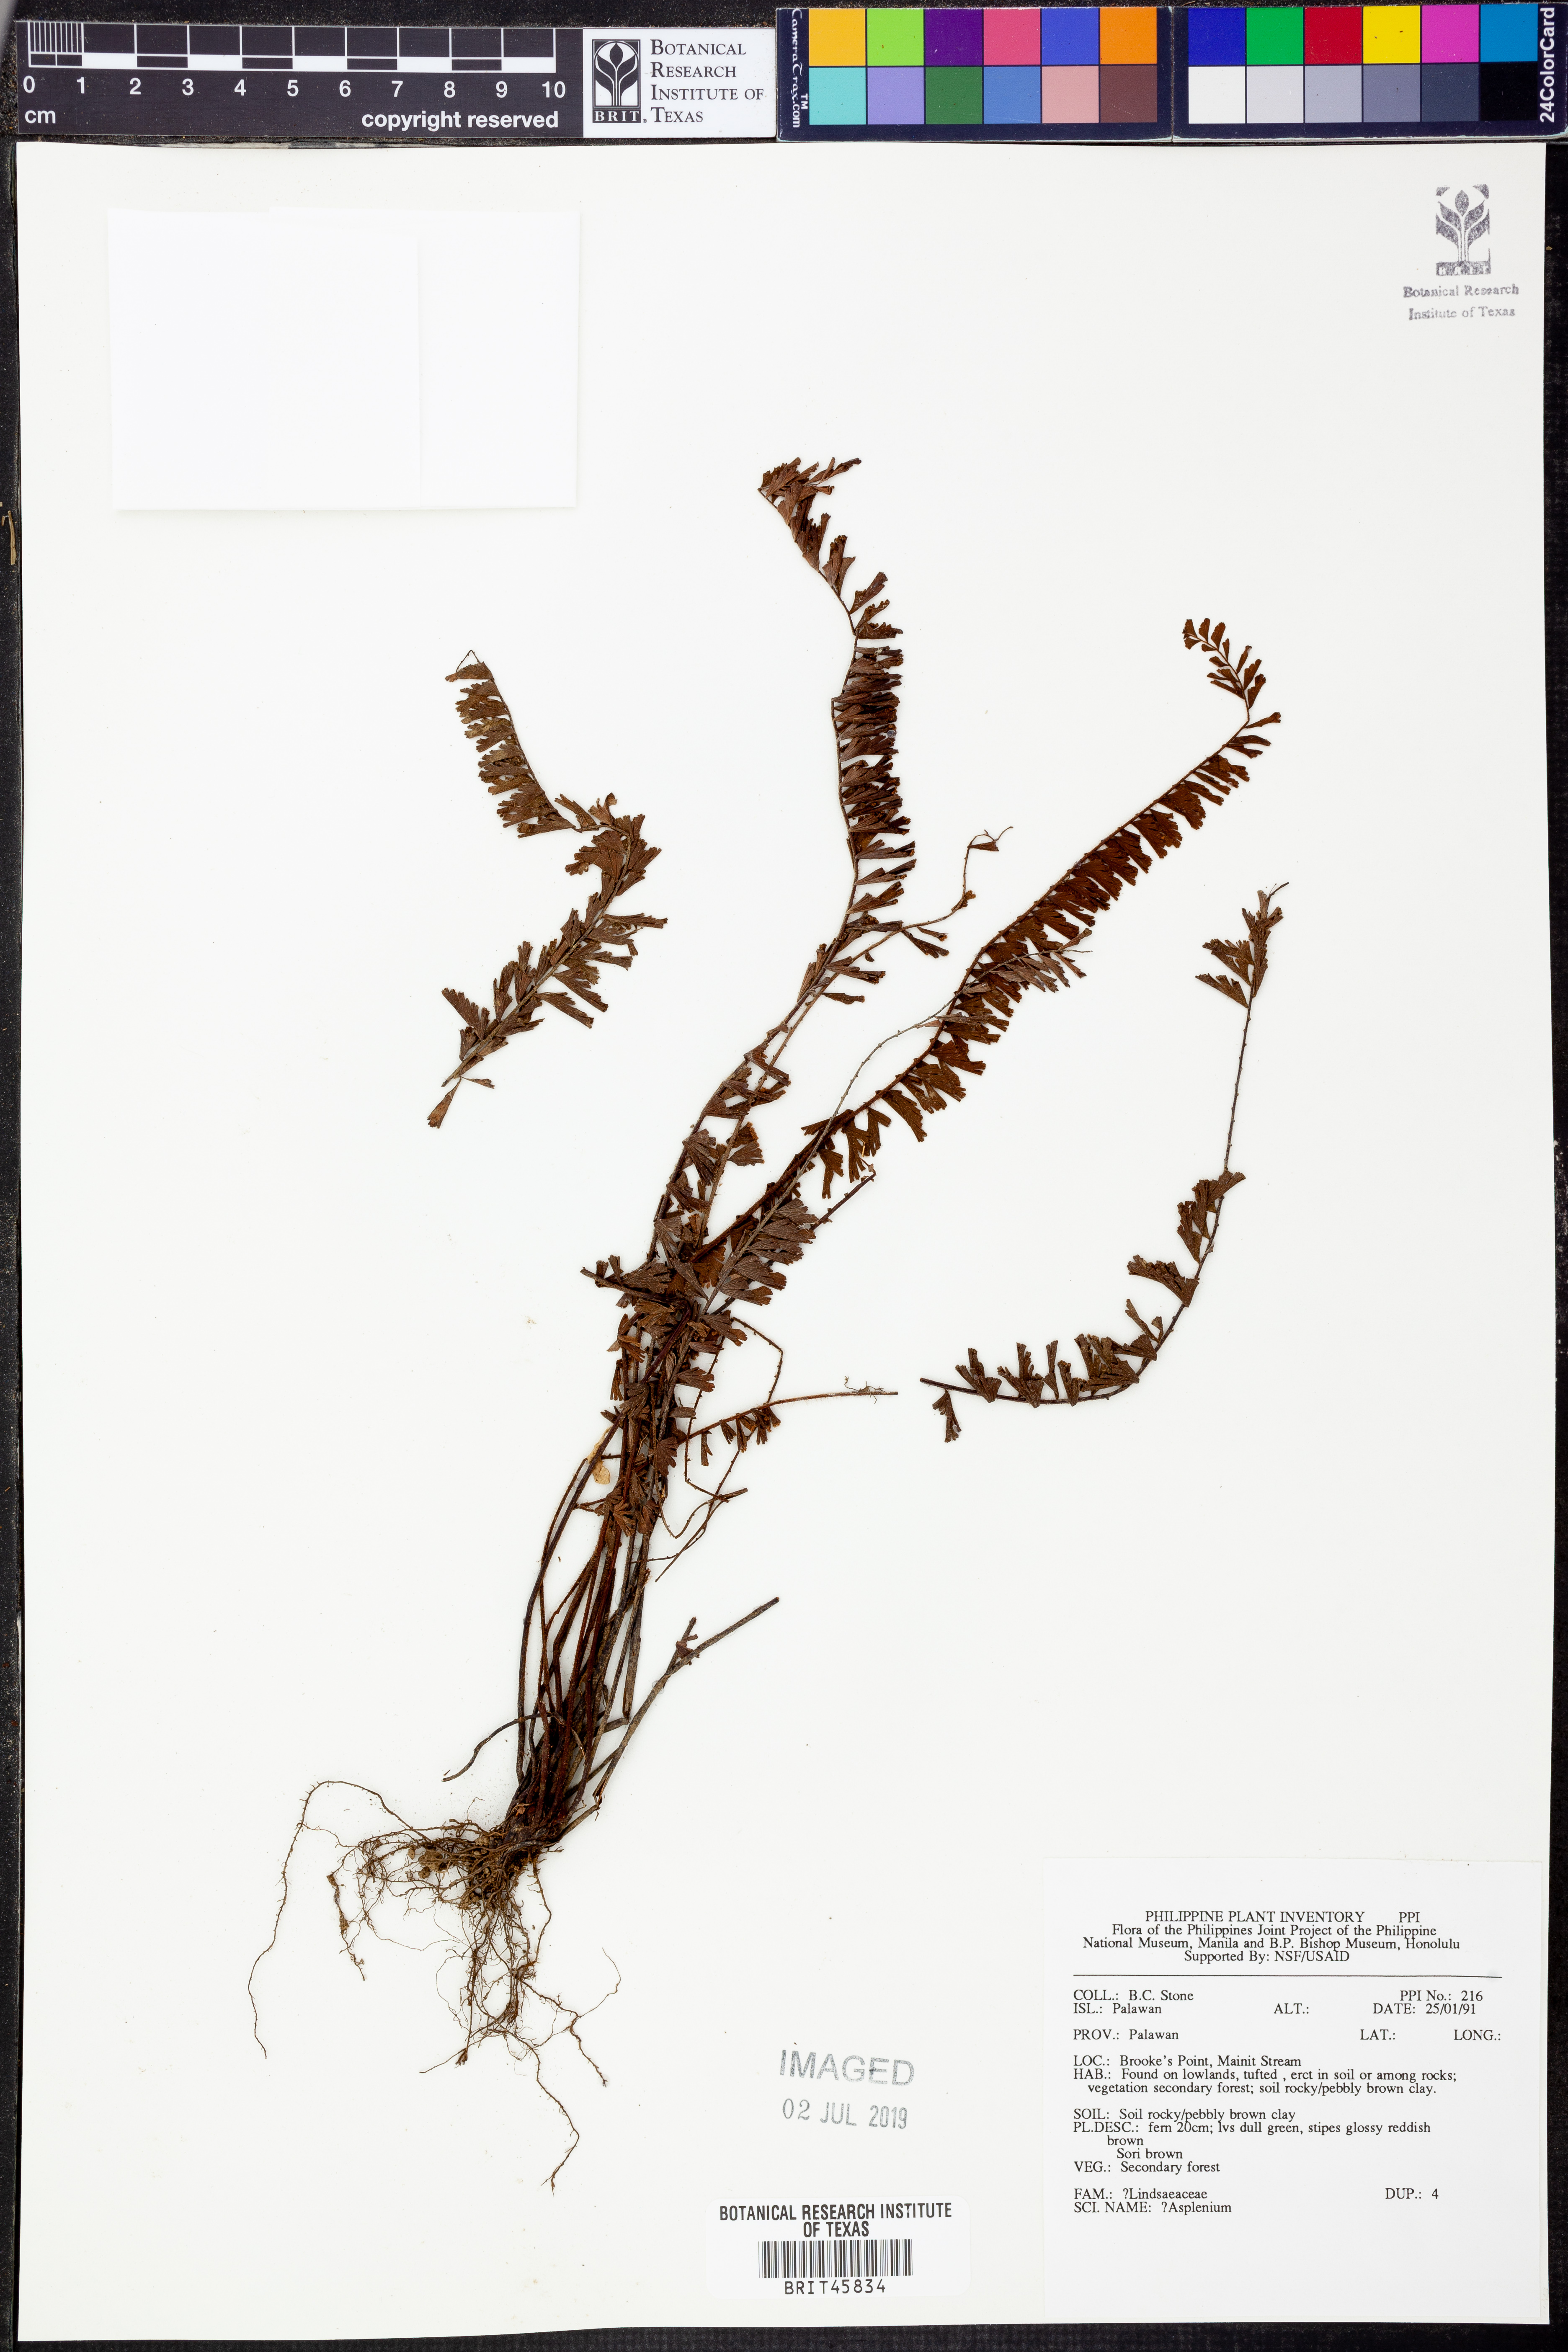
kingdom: Plantae
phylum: Tracheophyta
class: Polypodiopsida
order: Polypodiales
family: Aspleniaceae
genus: Asplenium
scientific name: Asplenium
